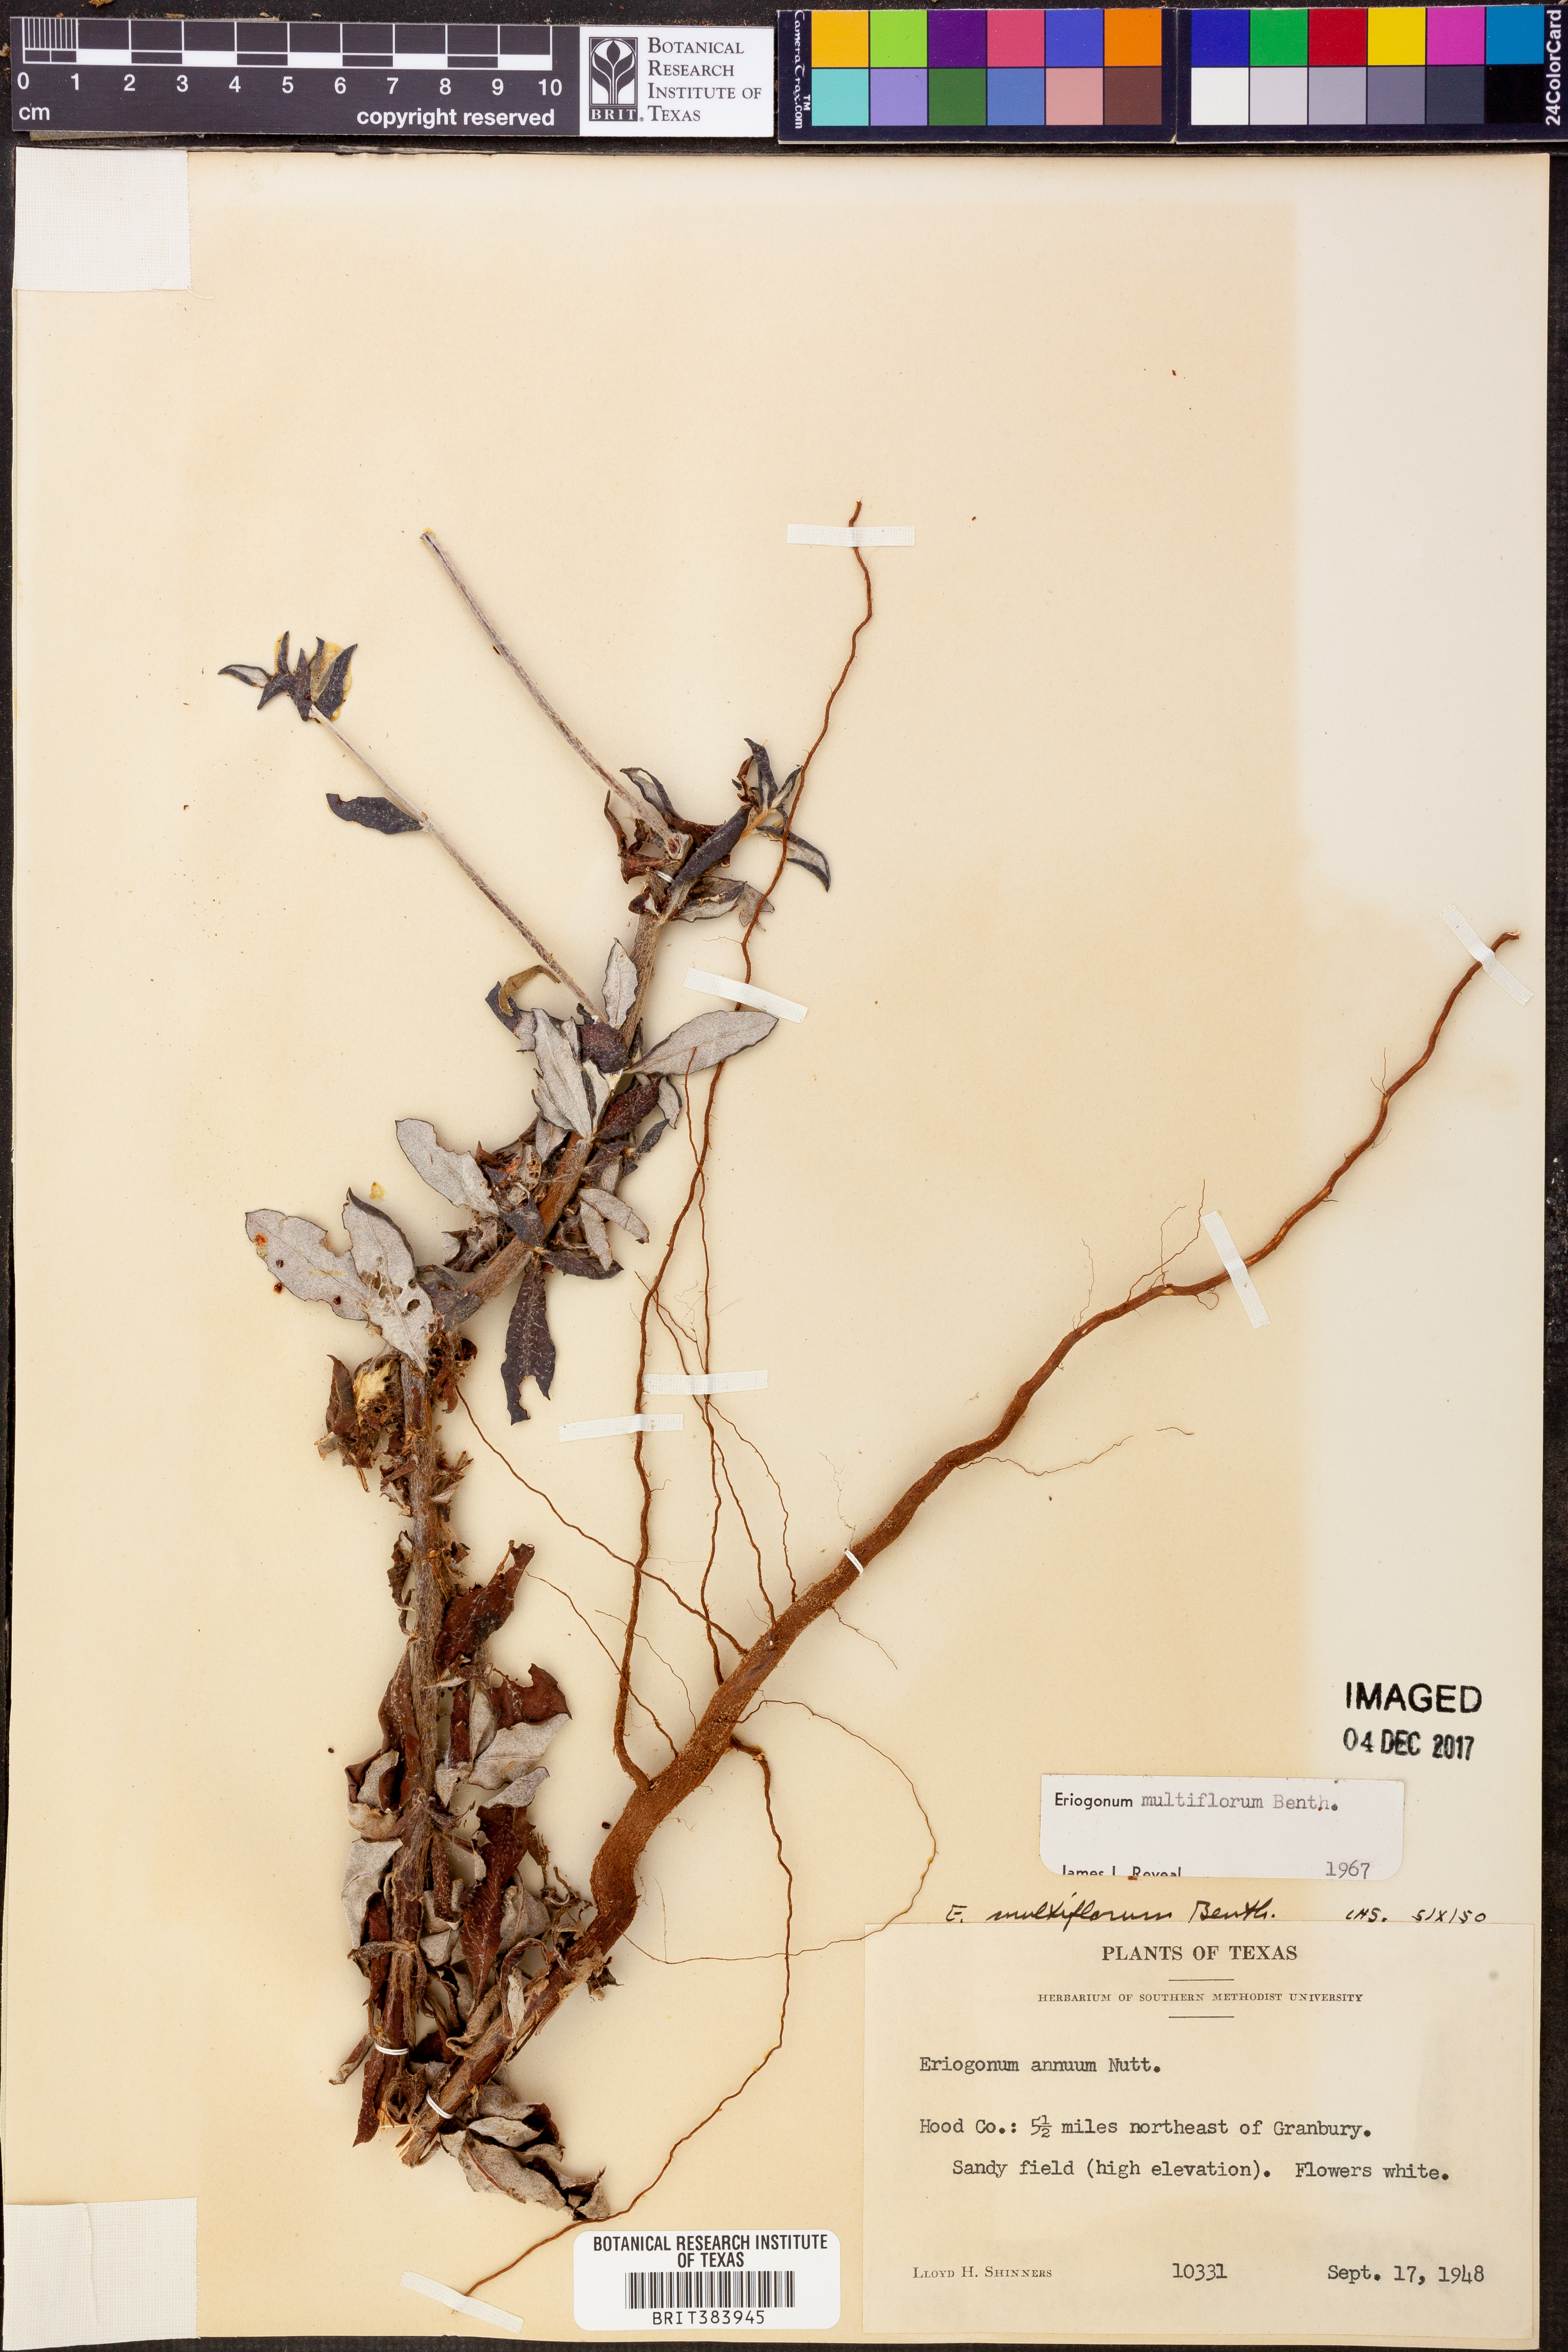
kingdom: Plantae
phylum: Tracheophyta
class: Magnoliopsida
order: Caryophyllales
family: Polygonaceae
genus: Eriogonum
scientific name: Eriogonum multiflorum
